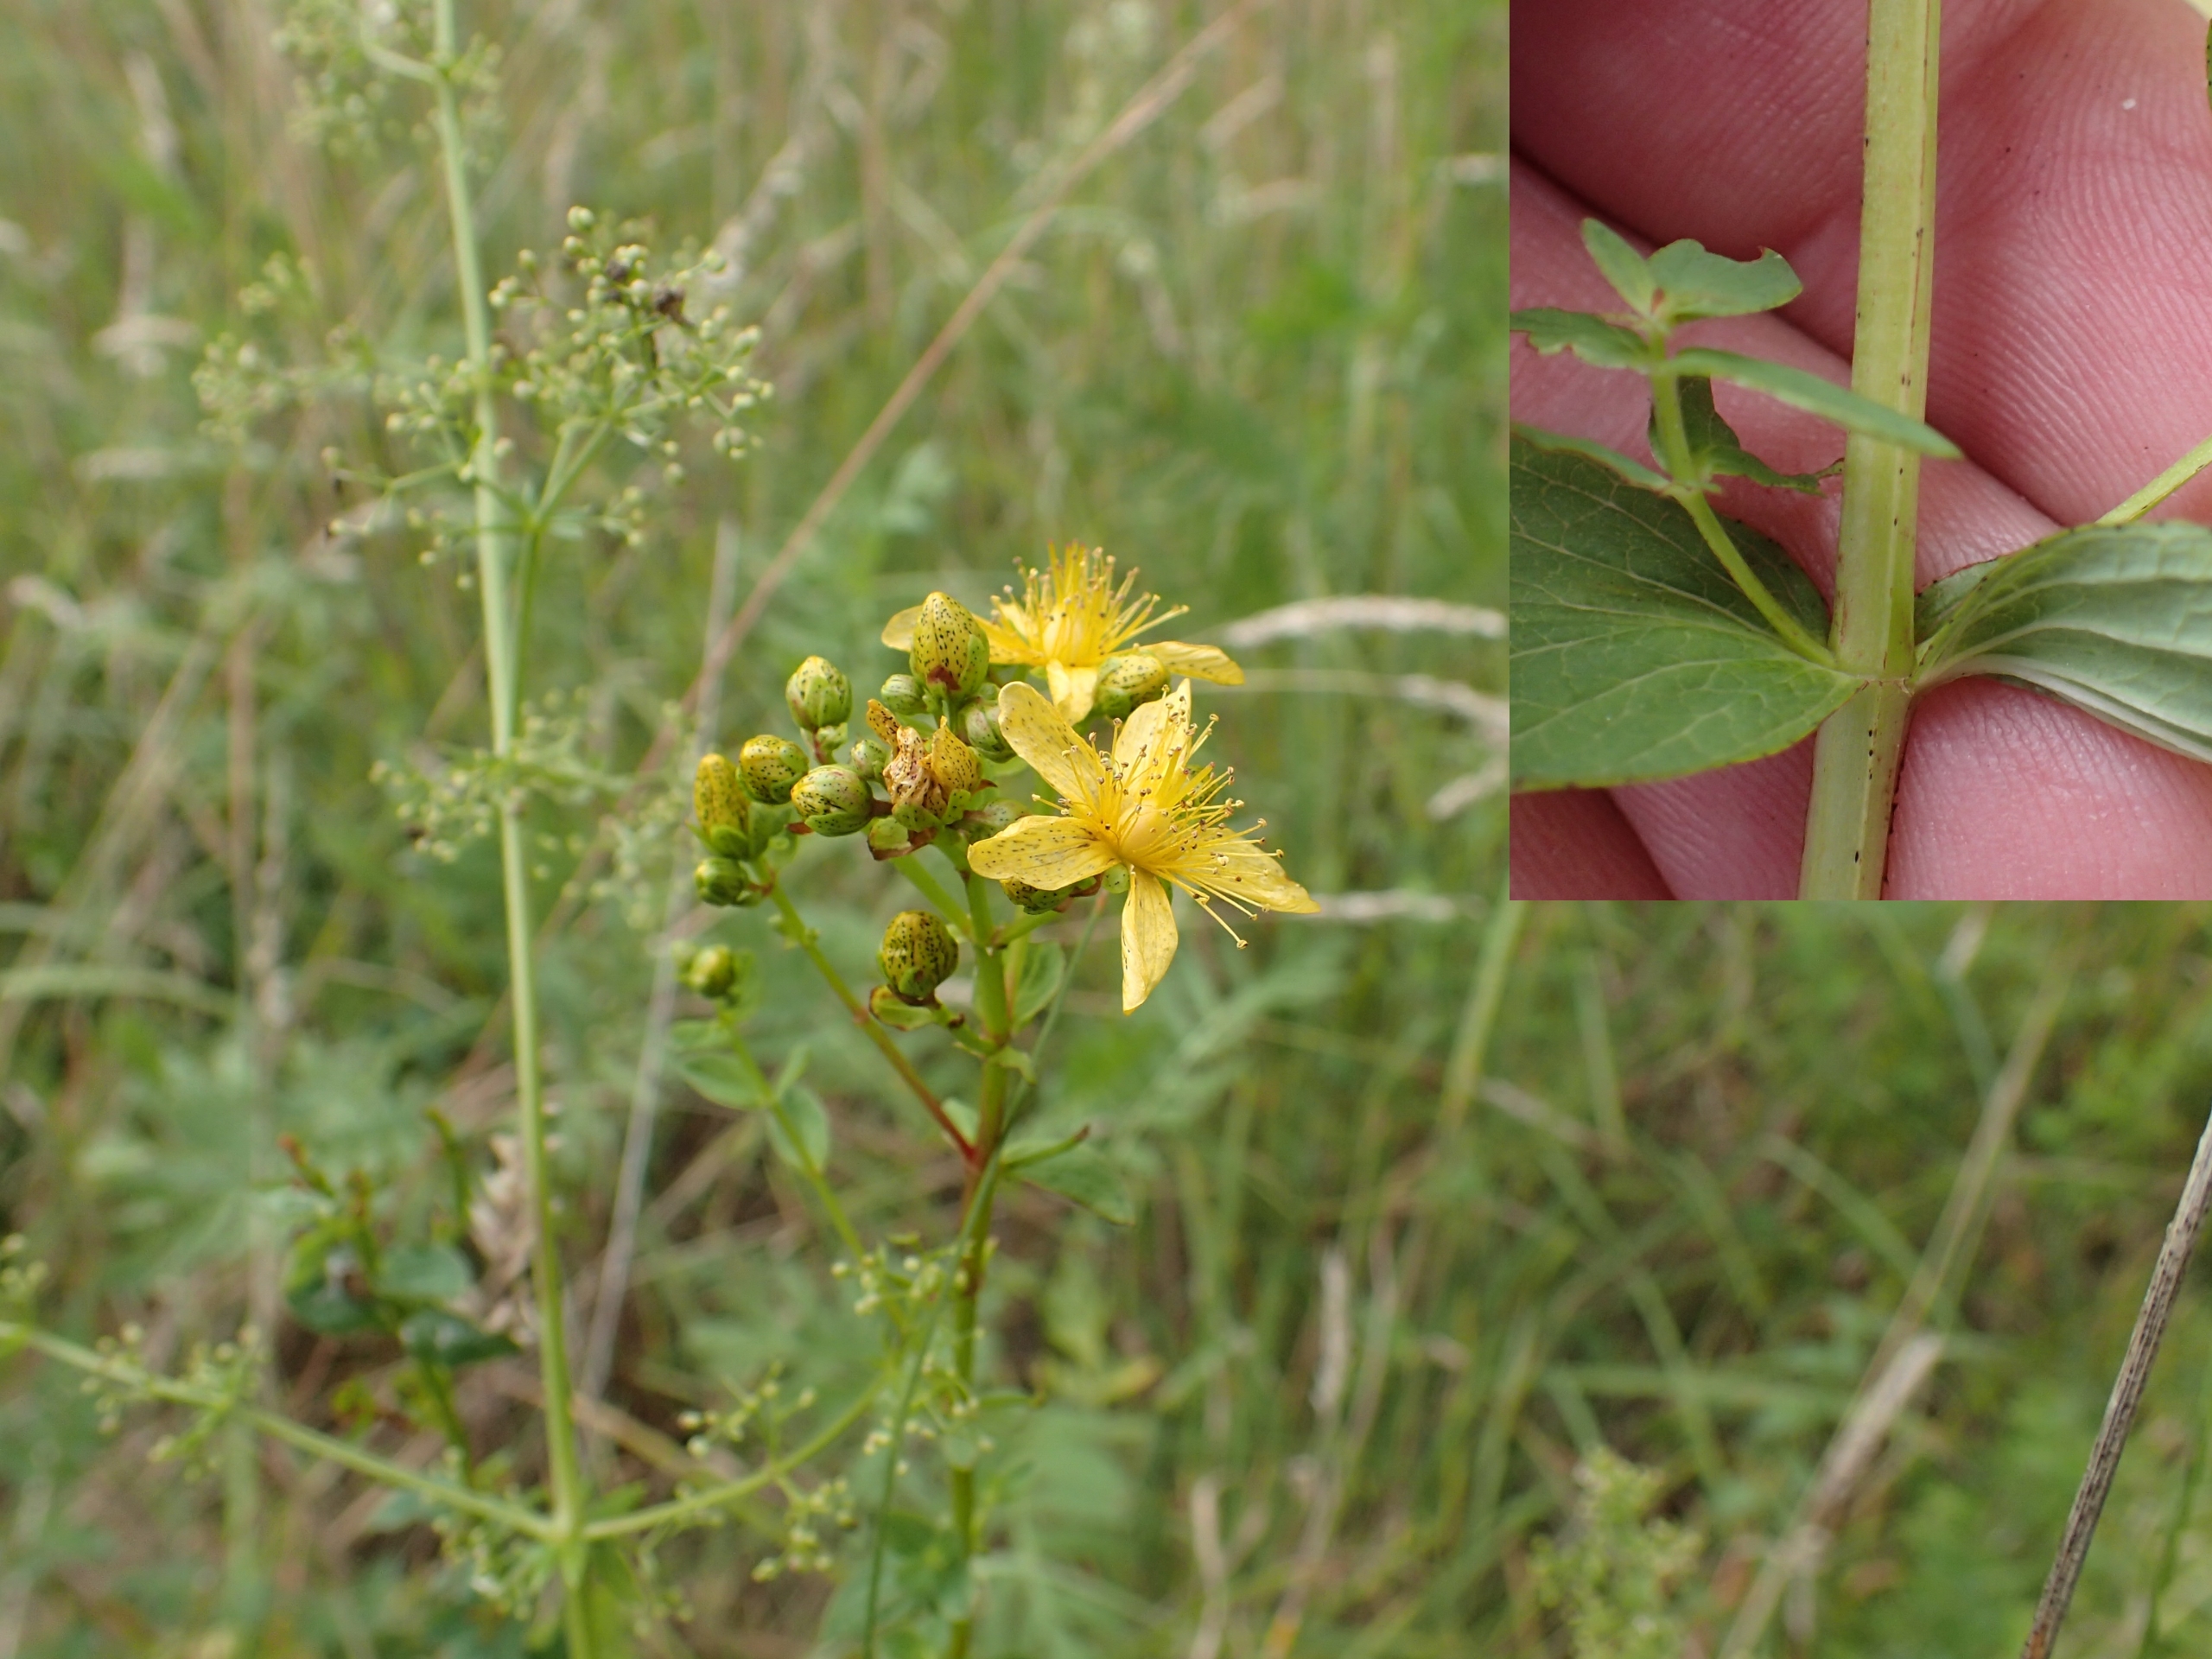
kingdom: Plantae
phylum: Tracheophyta
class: Magnoliopsida
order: Malpighiales
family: Hypericaceae
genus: Hypericum
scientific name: Hypericum maculatum
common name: Kantet perikon
